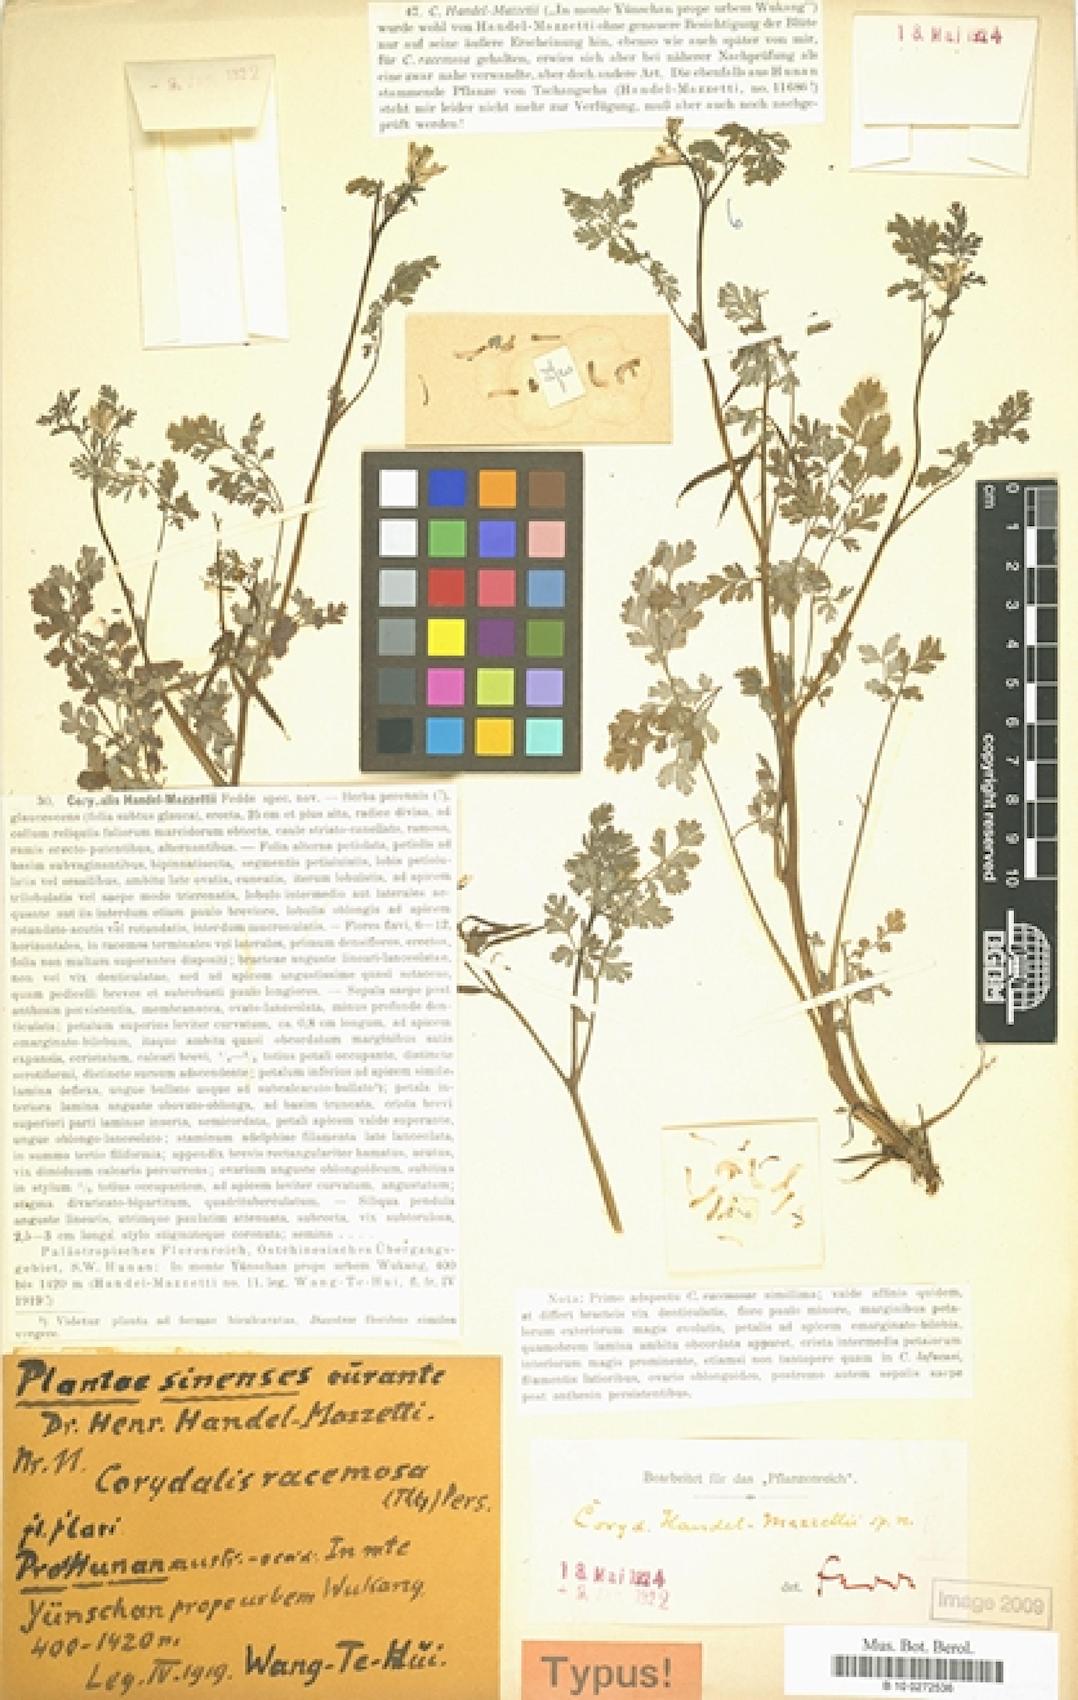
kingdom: Plantae
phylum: Tracheophyta
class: Magnoliopsida
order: Ranunculales
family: Papaveraceae
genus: Corydalis
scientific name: Corydalis racemosa
